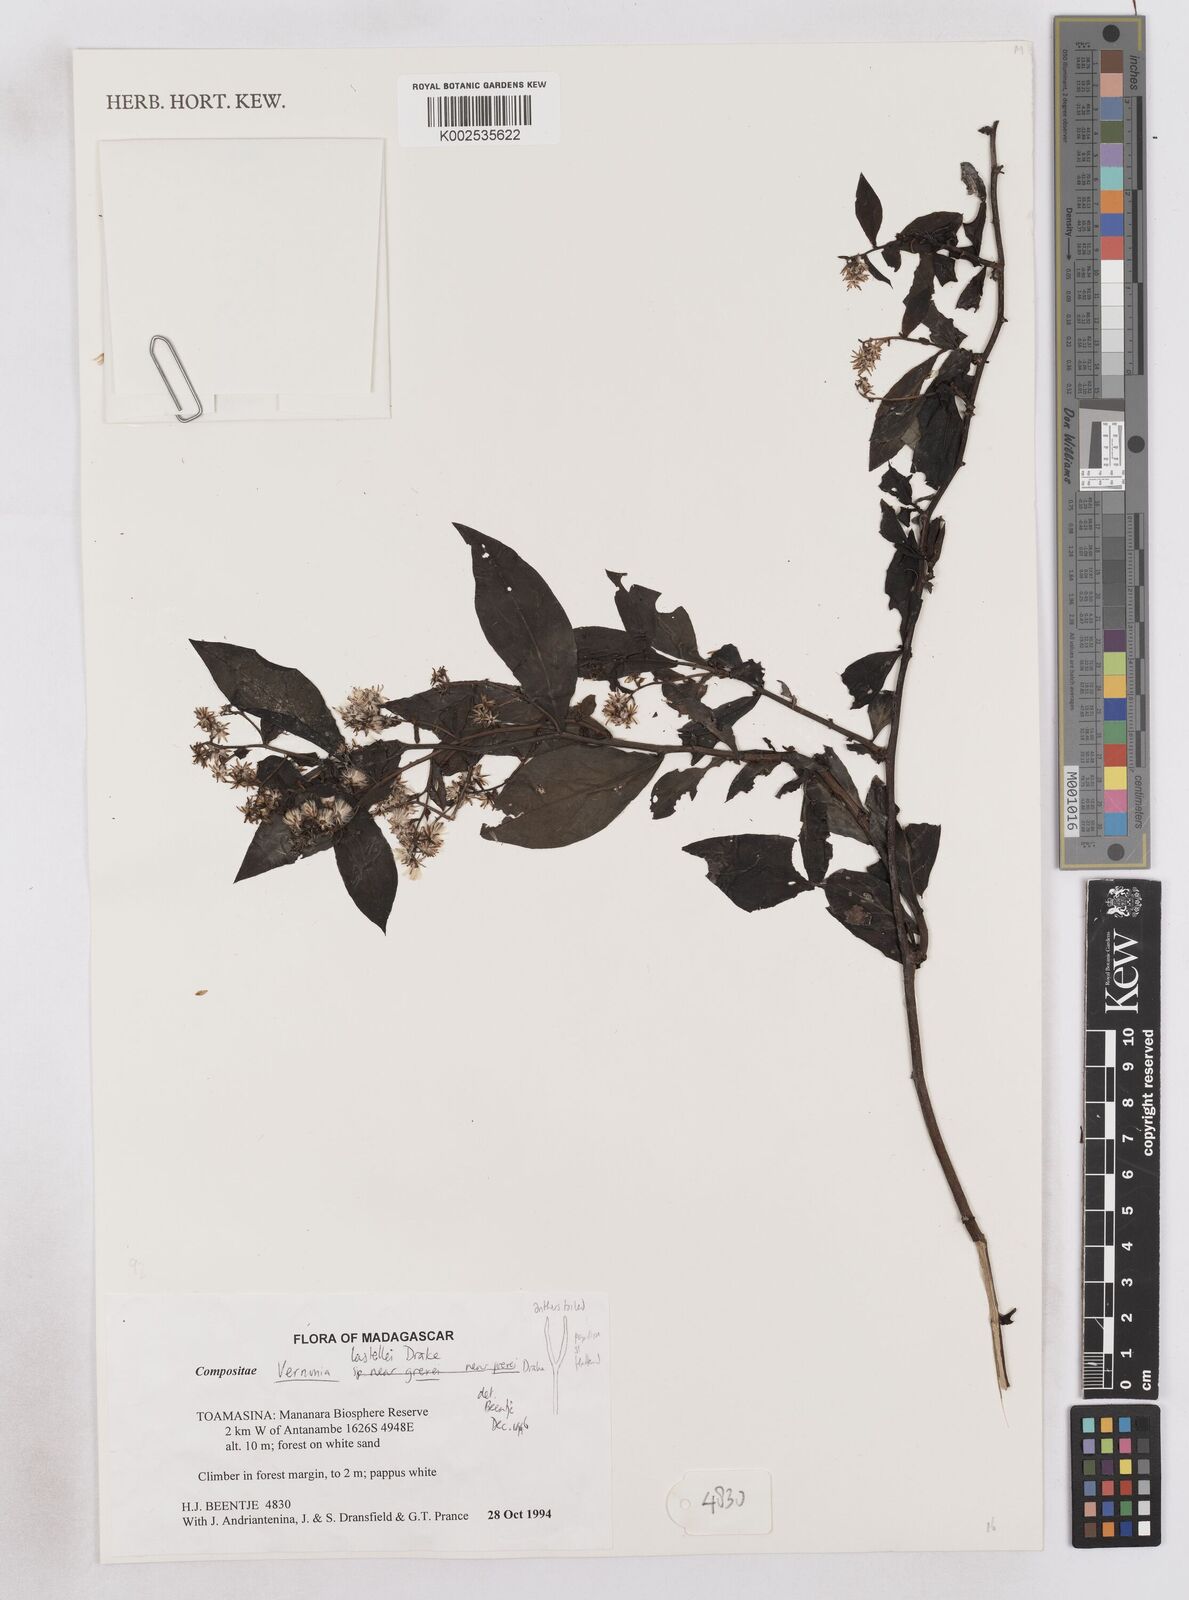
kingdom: Plantae
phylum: Tracheophyta
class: Magnoliopsida
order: Asterales
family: Asteraceae
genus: Distephanus
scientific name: Distephanus lastellei
